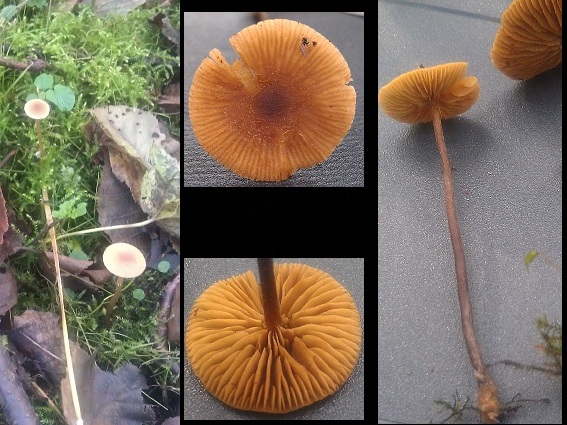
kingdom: Fungi
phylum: Basidiomycota
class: Agaricomycetes
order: Agaricales
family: Hymenogastraceae
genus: Naucoria
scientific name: Naucoria
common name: knaphat
